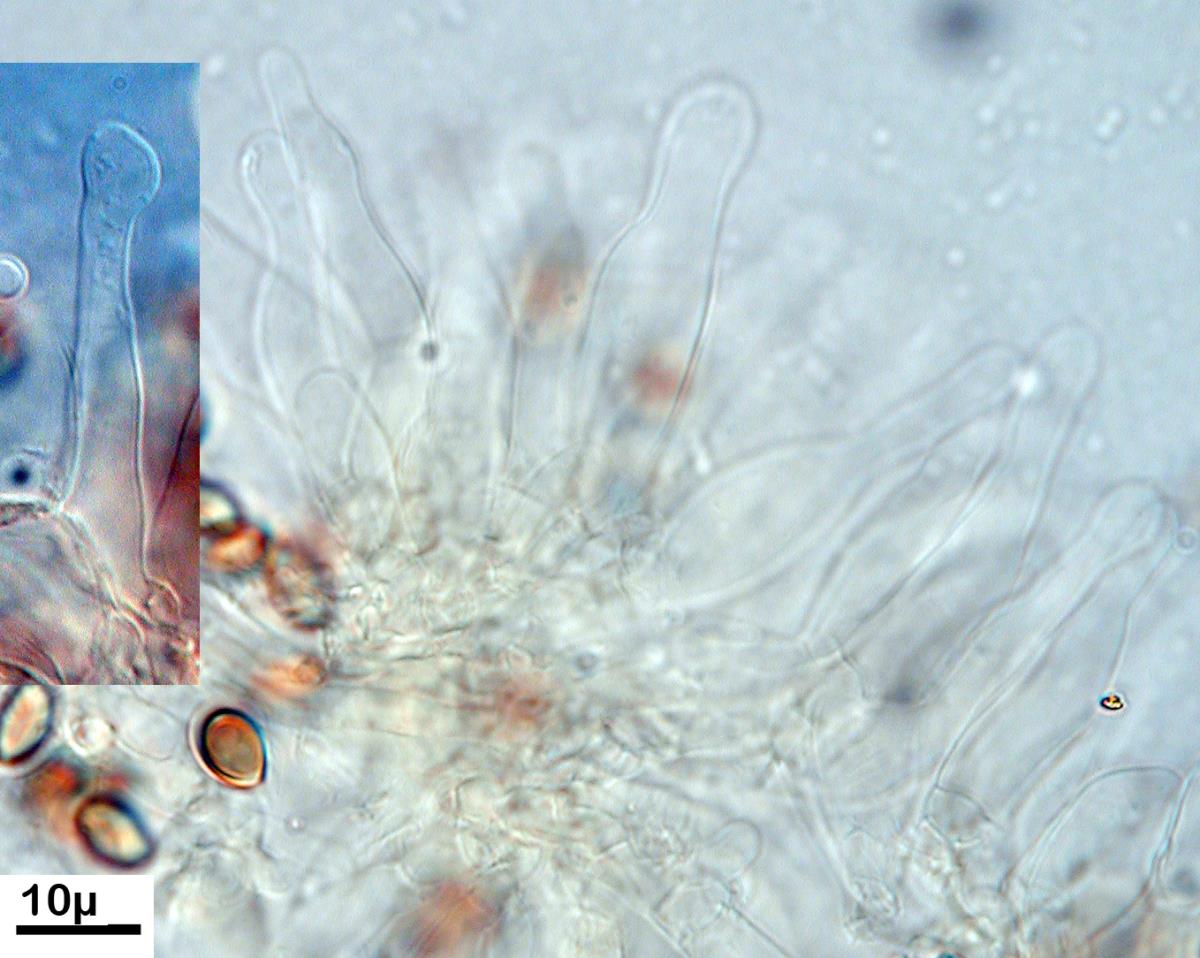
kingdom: Fungi
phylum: Basidiomycota
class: Agaricomycetes
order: Agaricales
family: Bolbitiaceae
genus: Conocybe
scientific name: Conocybe novae-zelandiae
